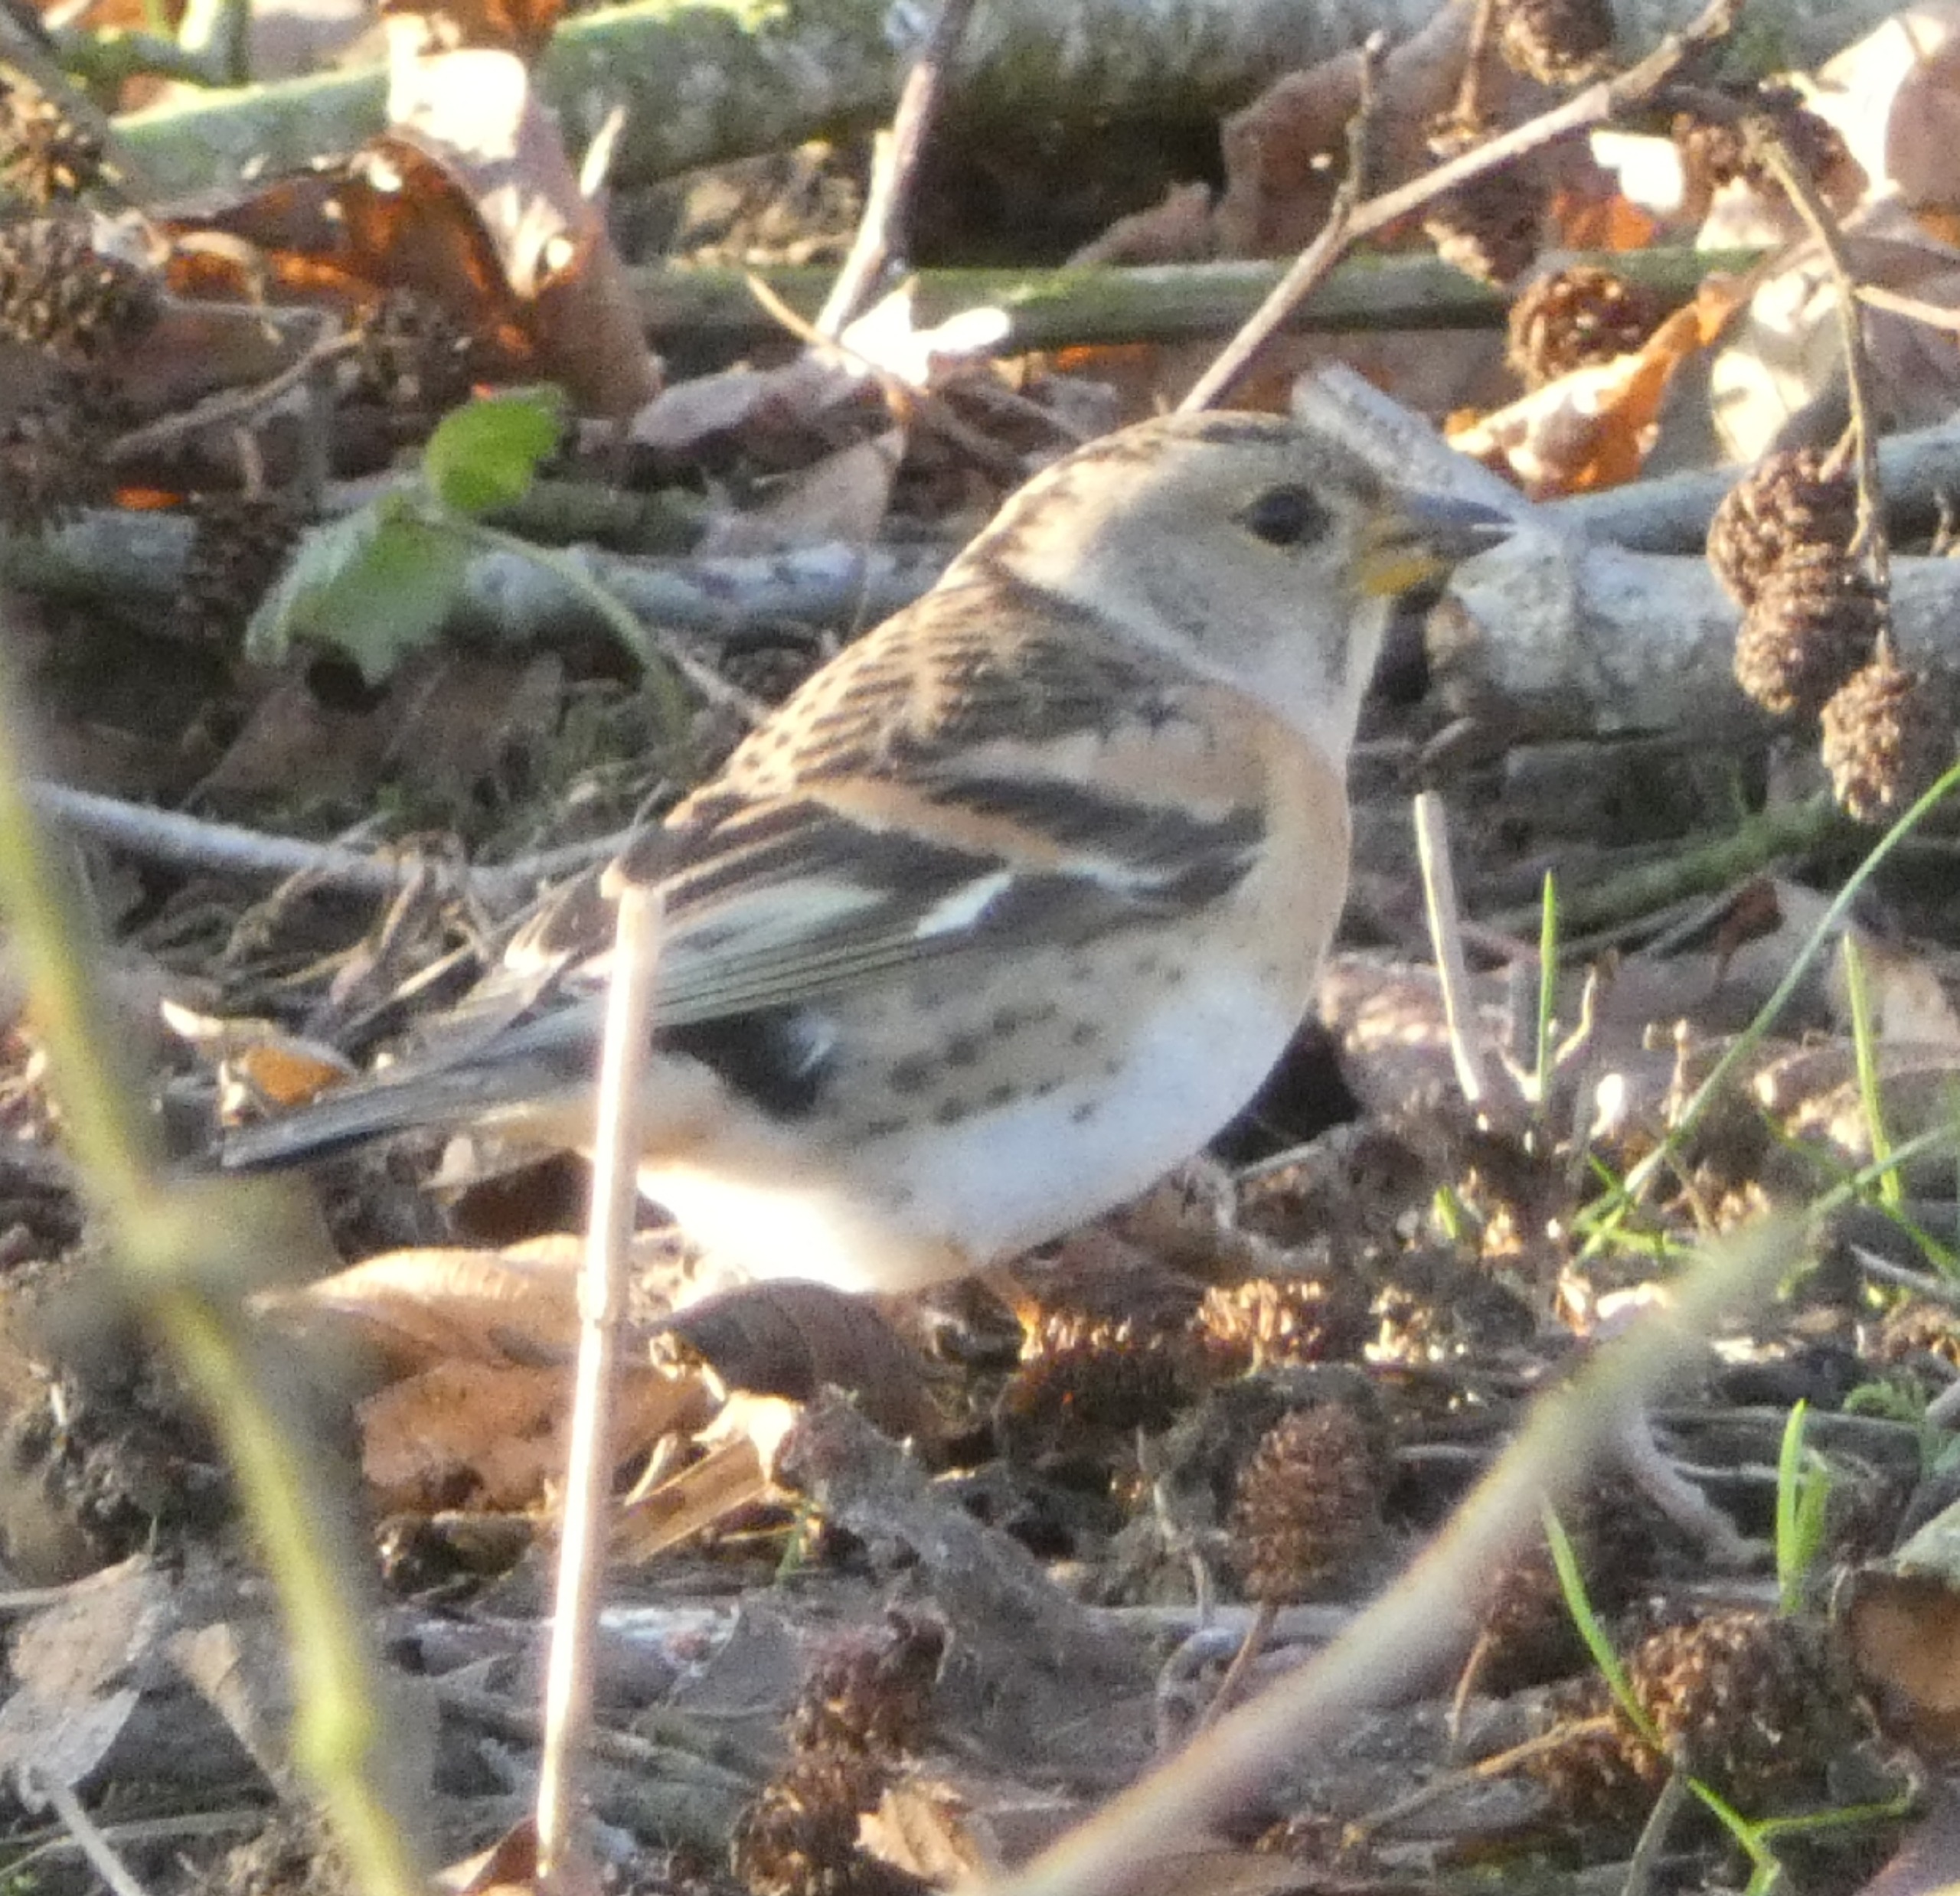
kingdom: Animalia
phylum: Chordata
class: Aves
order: Passeriformes
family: Fringillidae
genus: Fringilla
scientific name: Fringilla montifringilla
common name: Kvækerfinke
